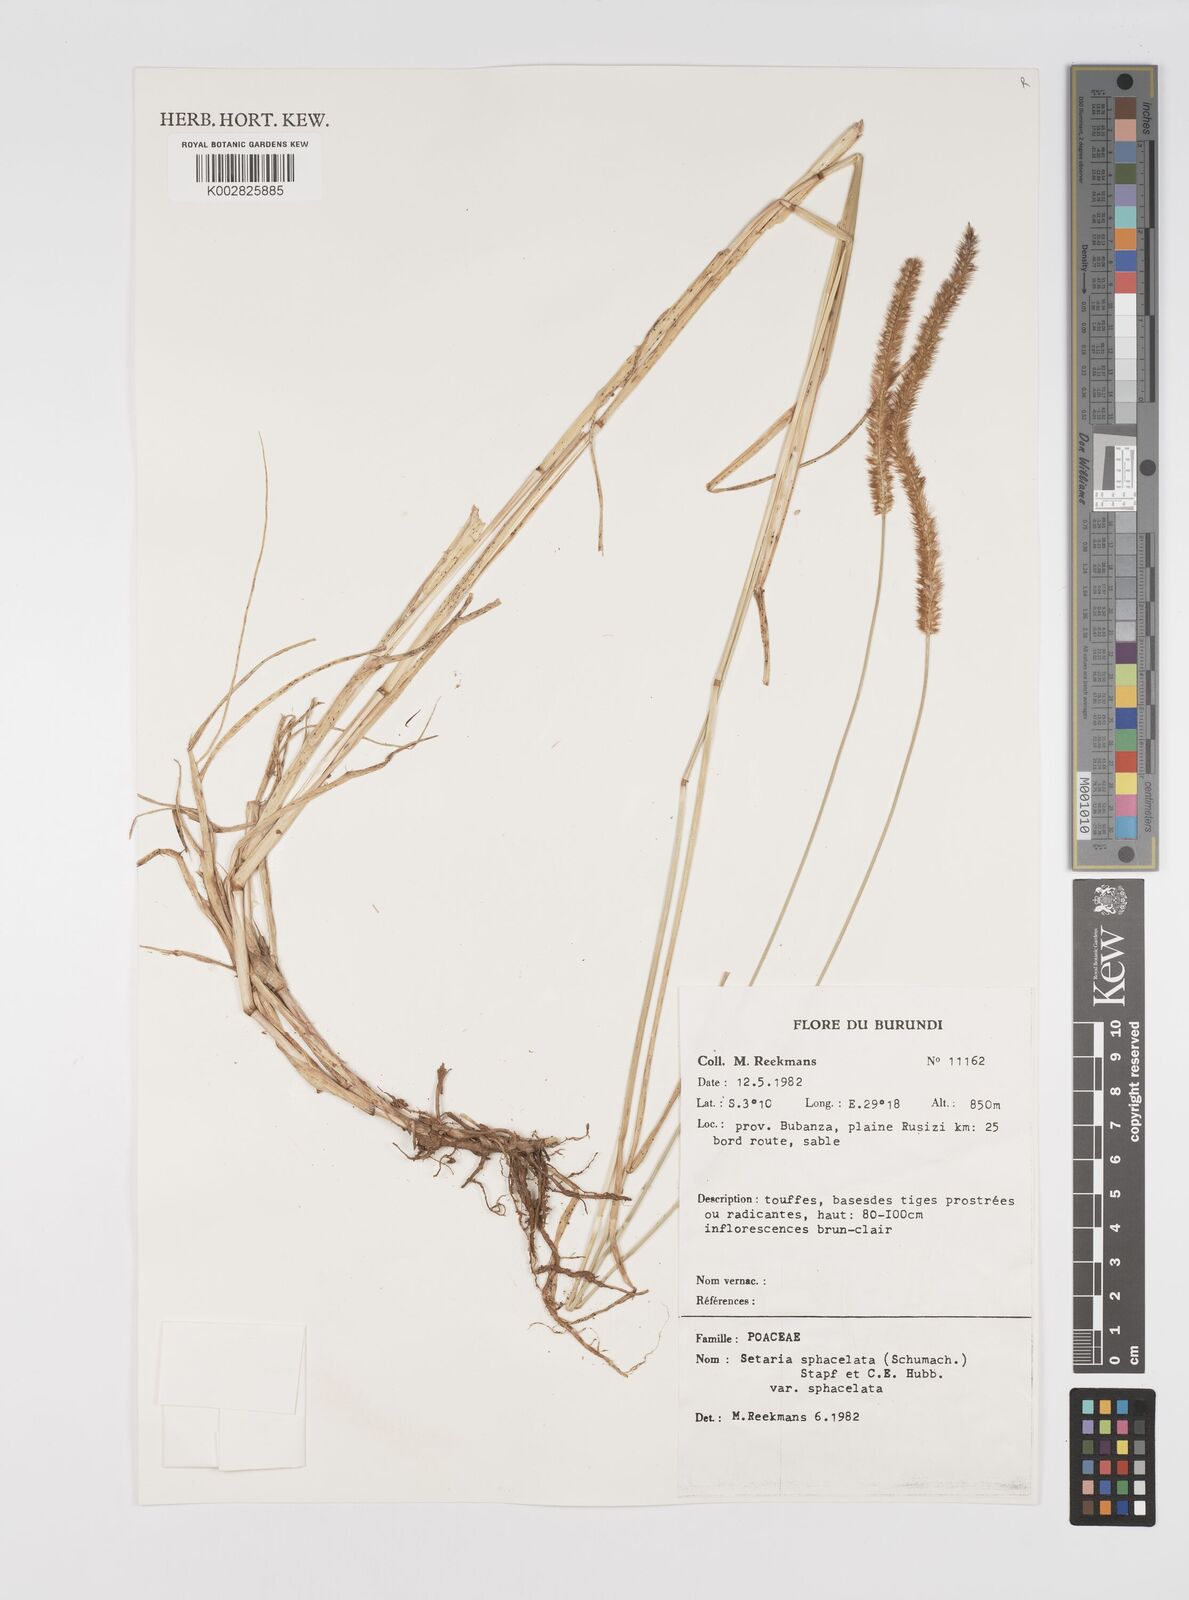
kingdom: Plantae
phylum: Tracheophyta
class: Liliopsida
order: Poales
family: Poaceae
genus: Setaria
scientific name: Setaria sphacelata
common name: African bristlegrass
